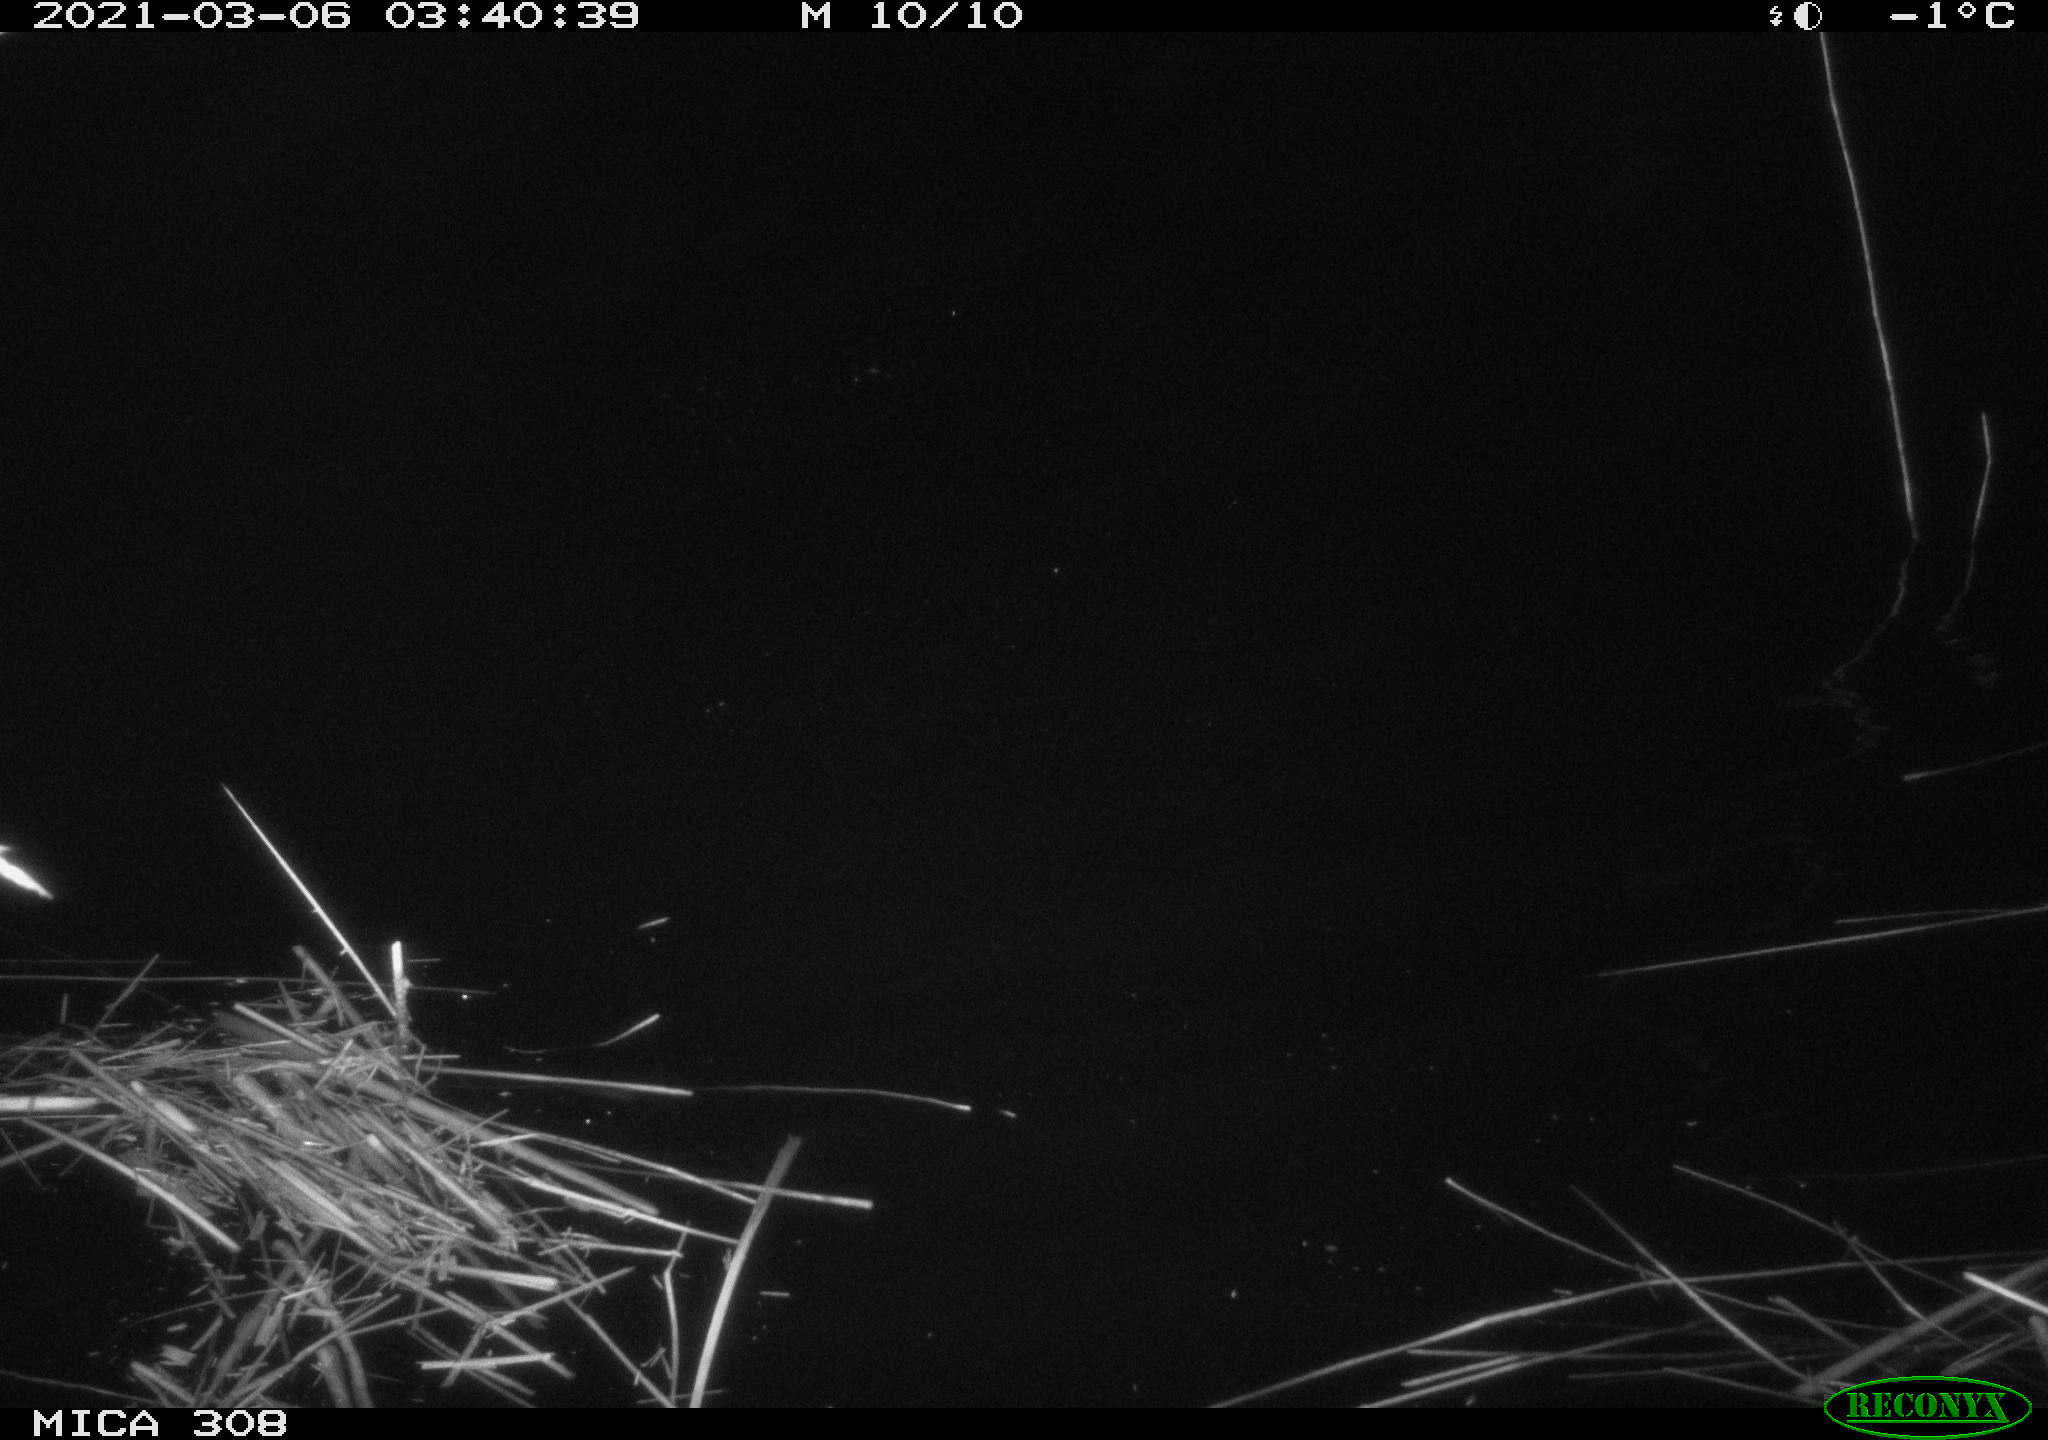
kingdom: Animalia
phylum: Chordata
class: Aves
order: Anseriformes
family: Anatidae
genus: Anas
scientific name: Anas platyrhynchos
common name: Mallard
